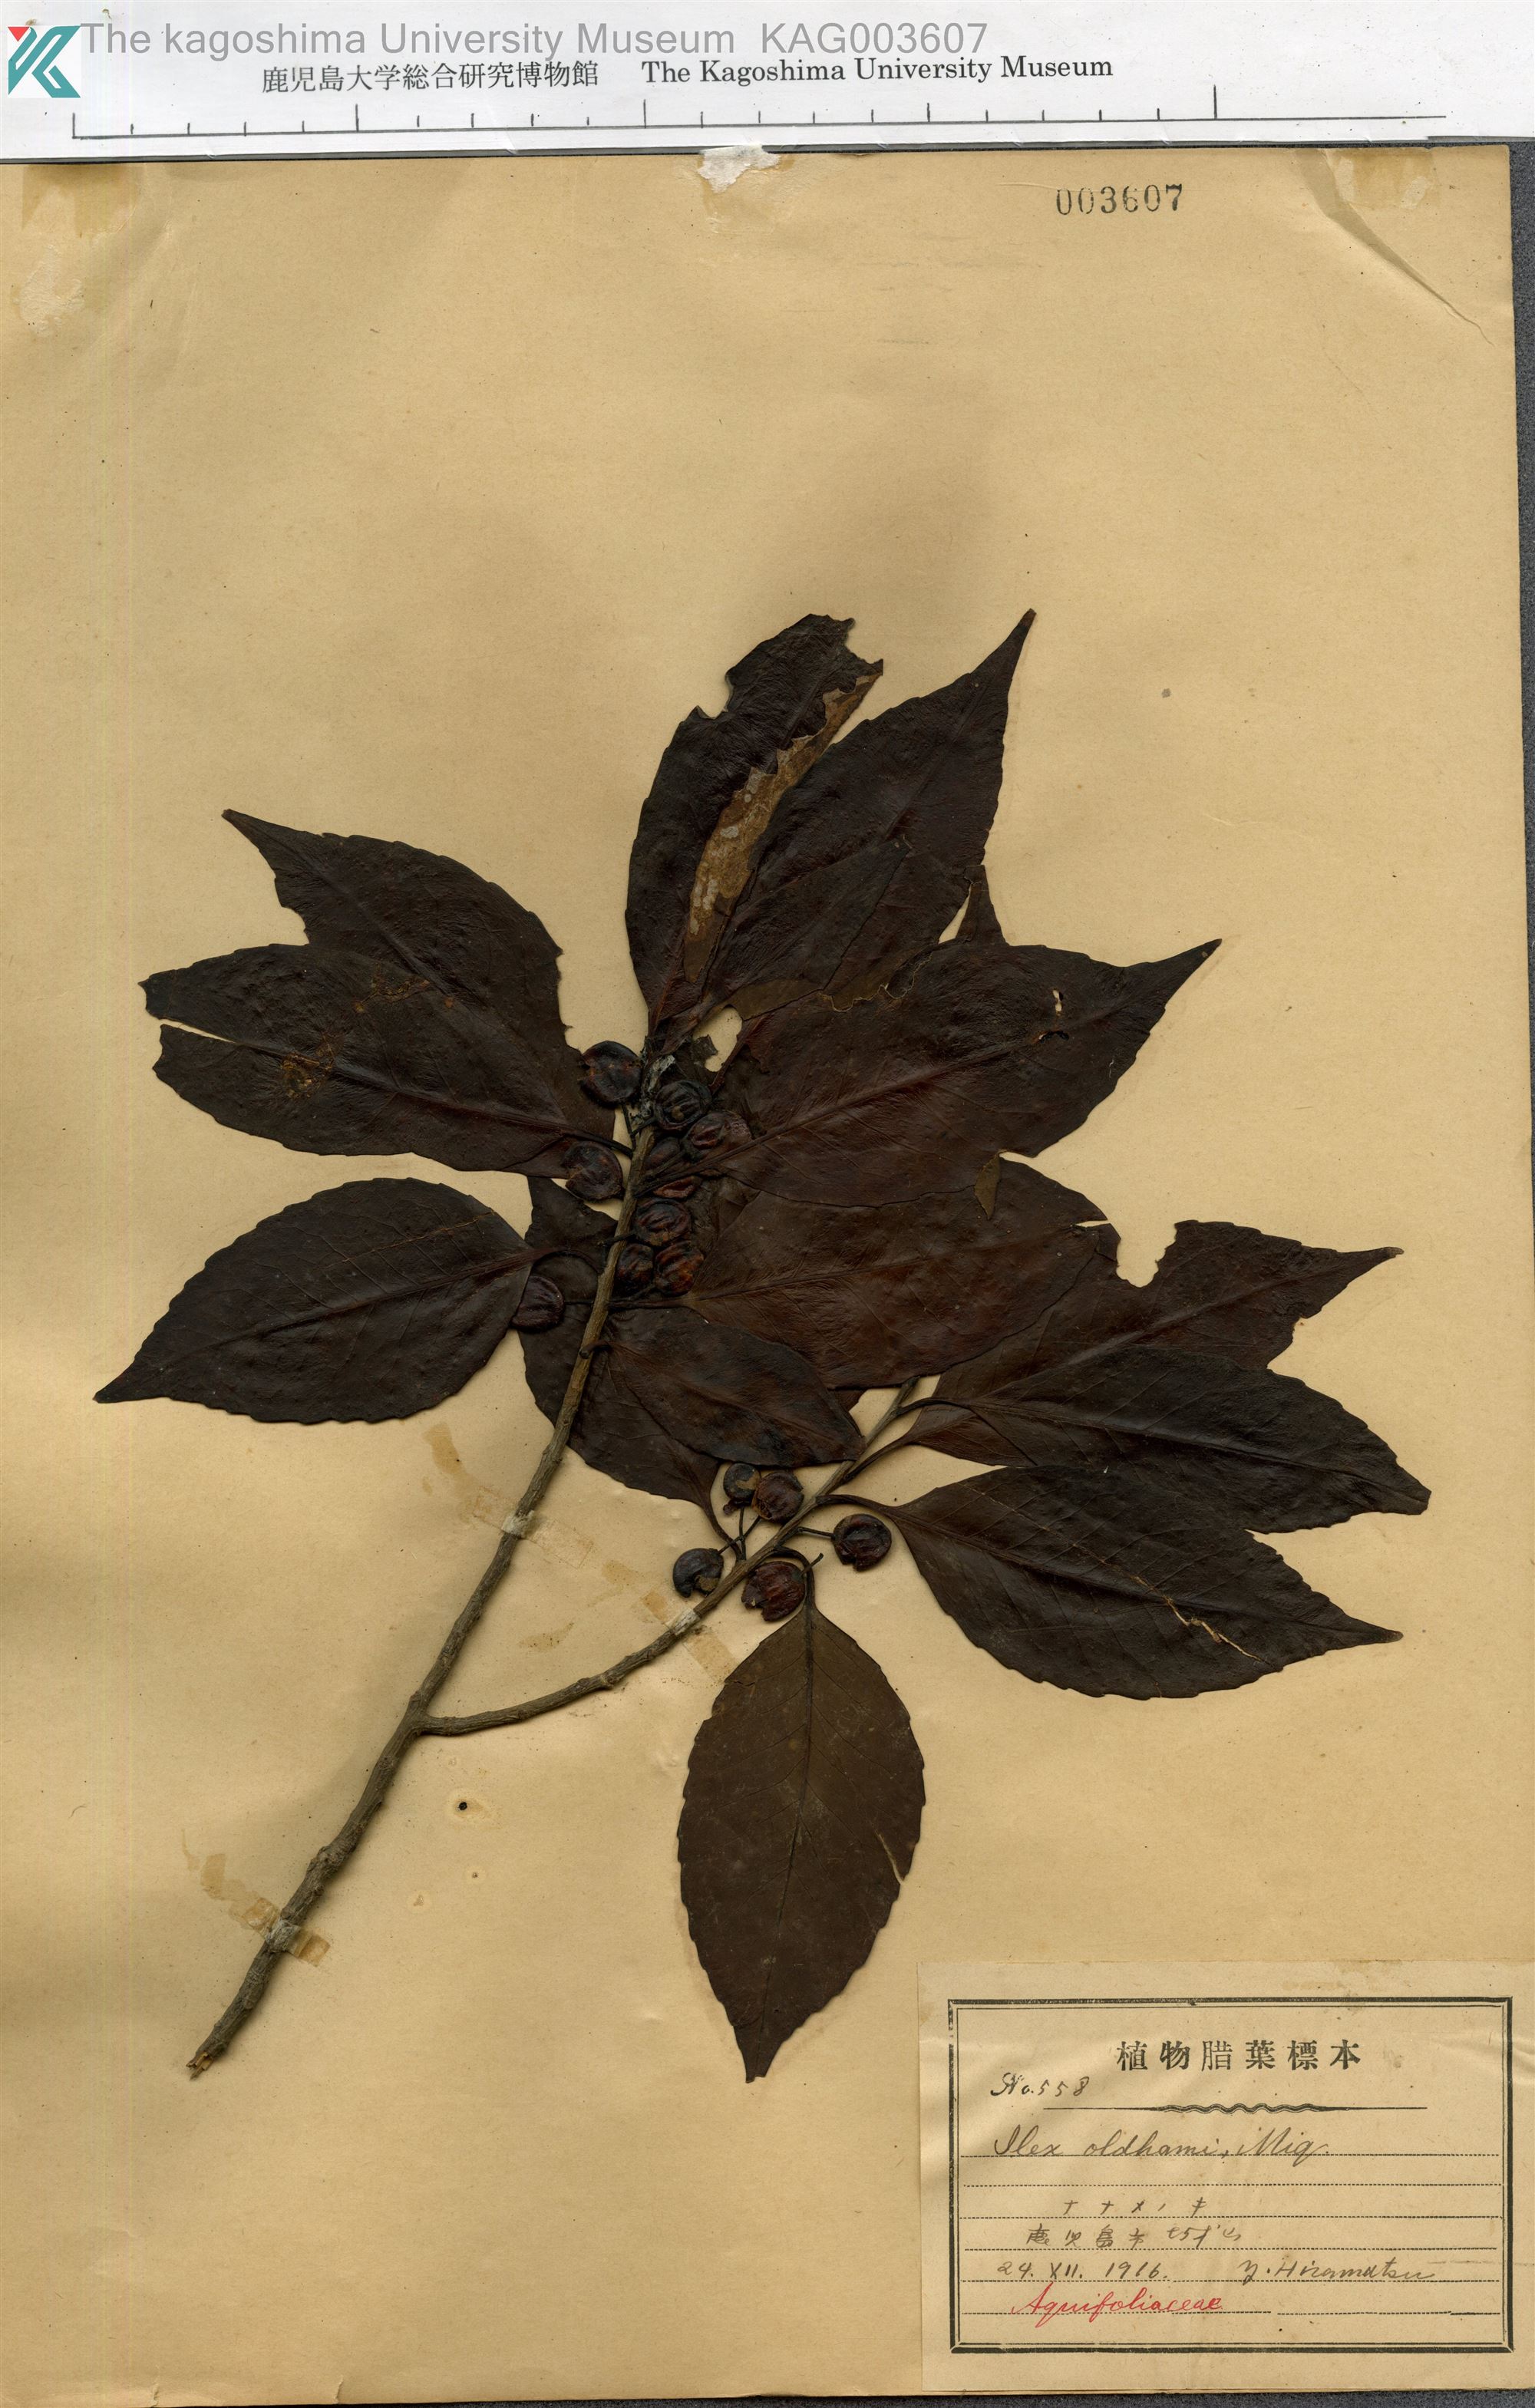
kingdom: Plantae
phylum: Tracheophyta
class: Magnoliopsida
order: Aquifoliales
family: Aquifoliaceae
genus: Ilex
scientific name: Ilex chinensis
